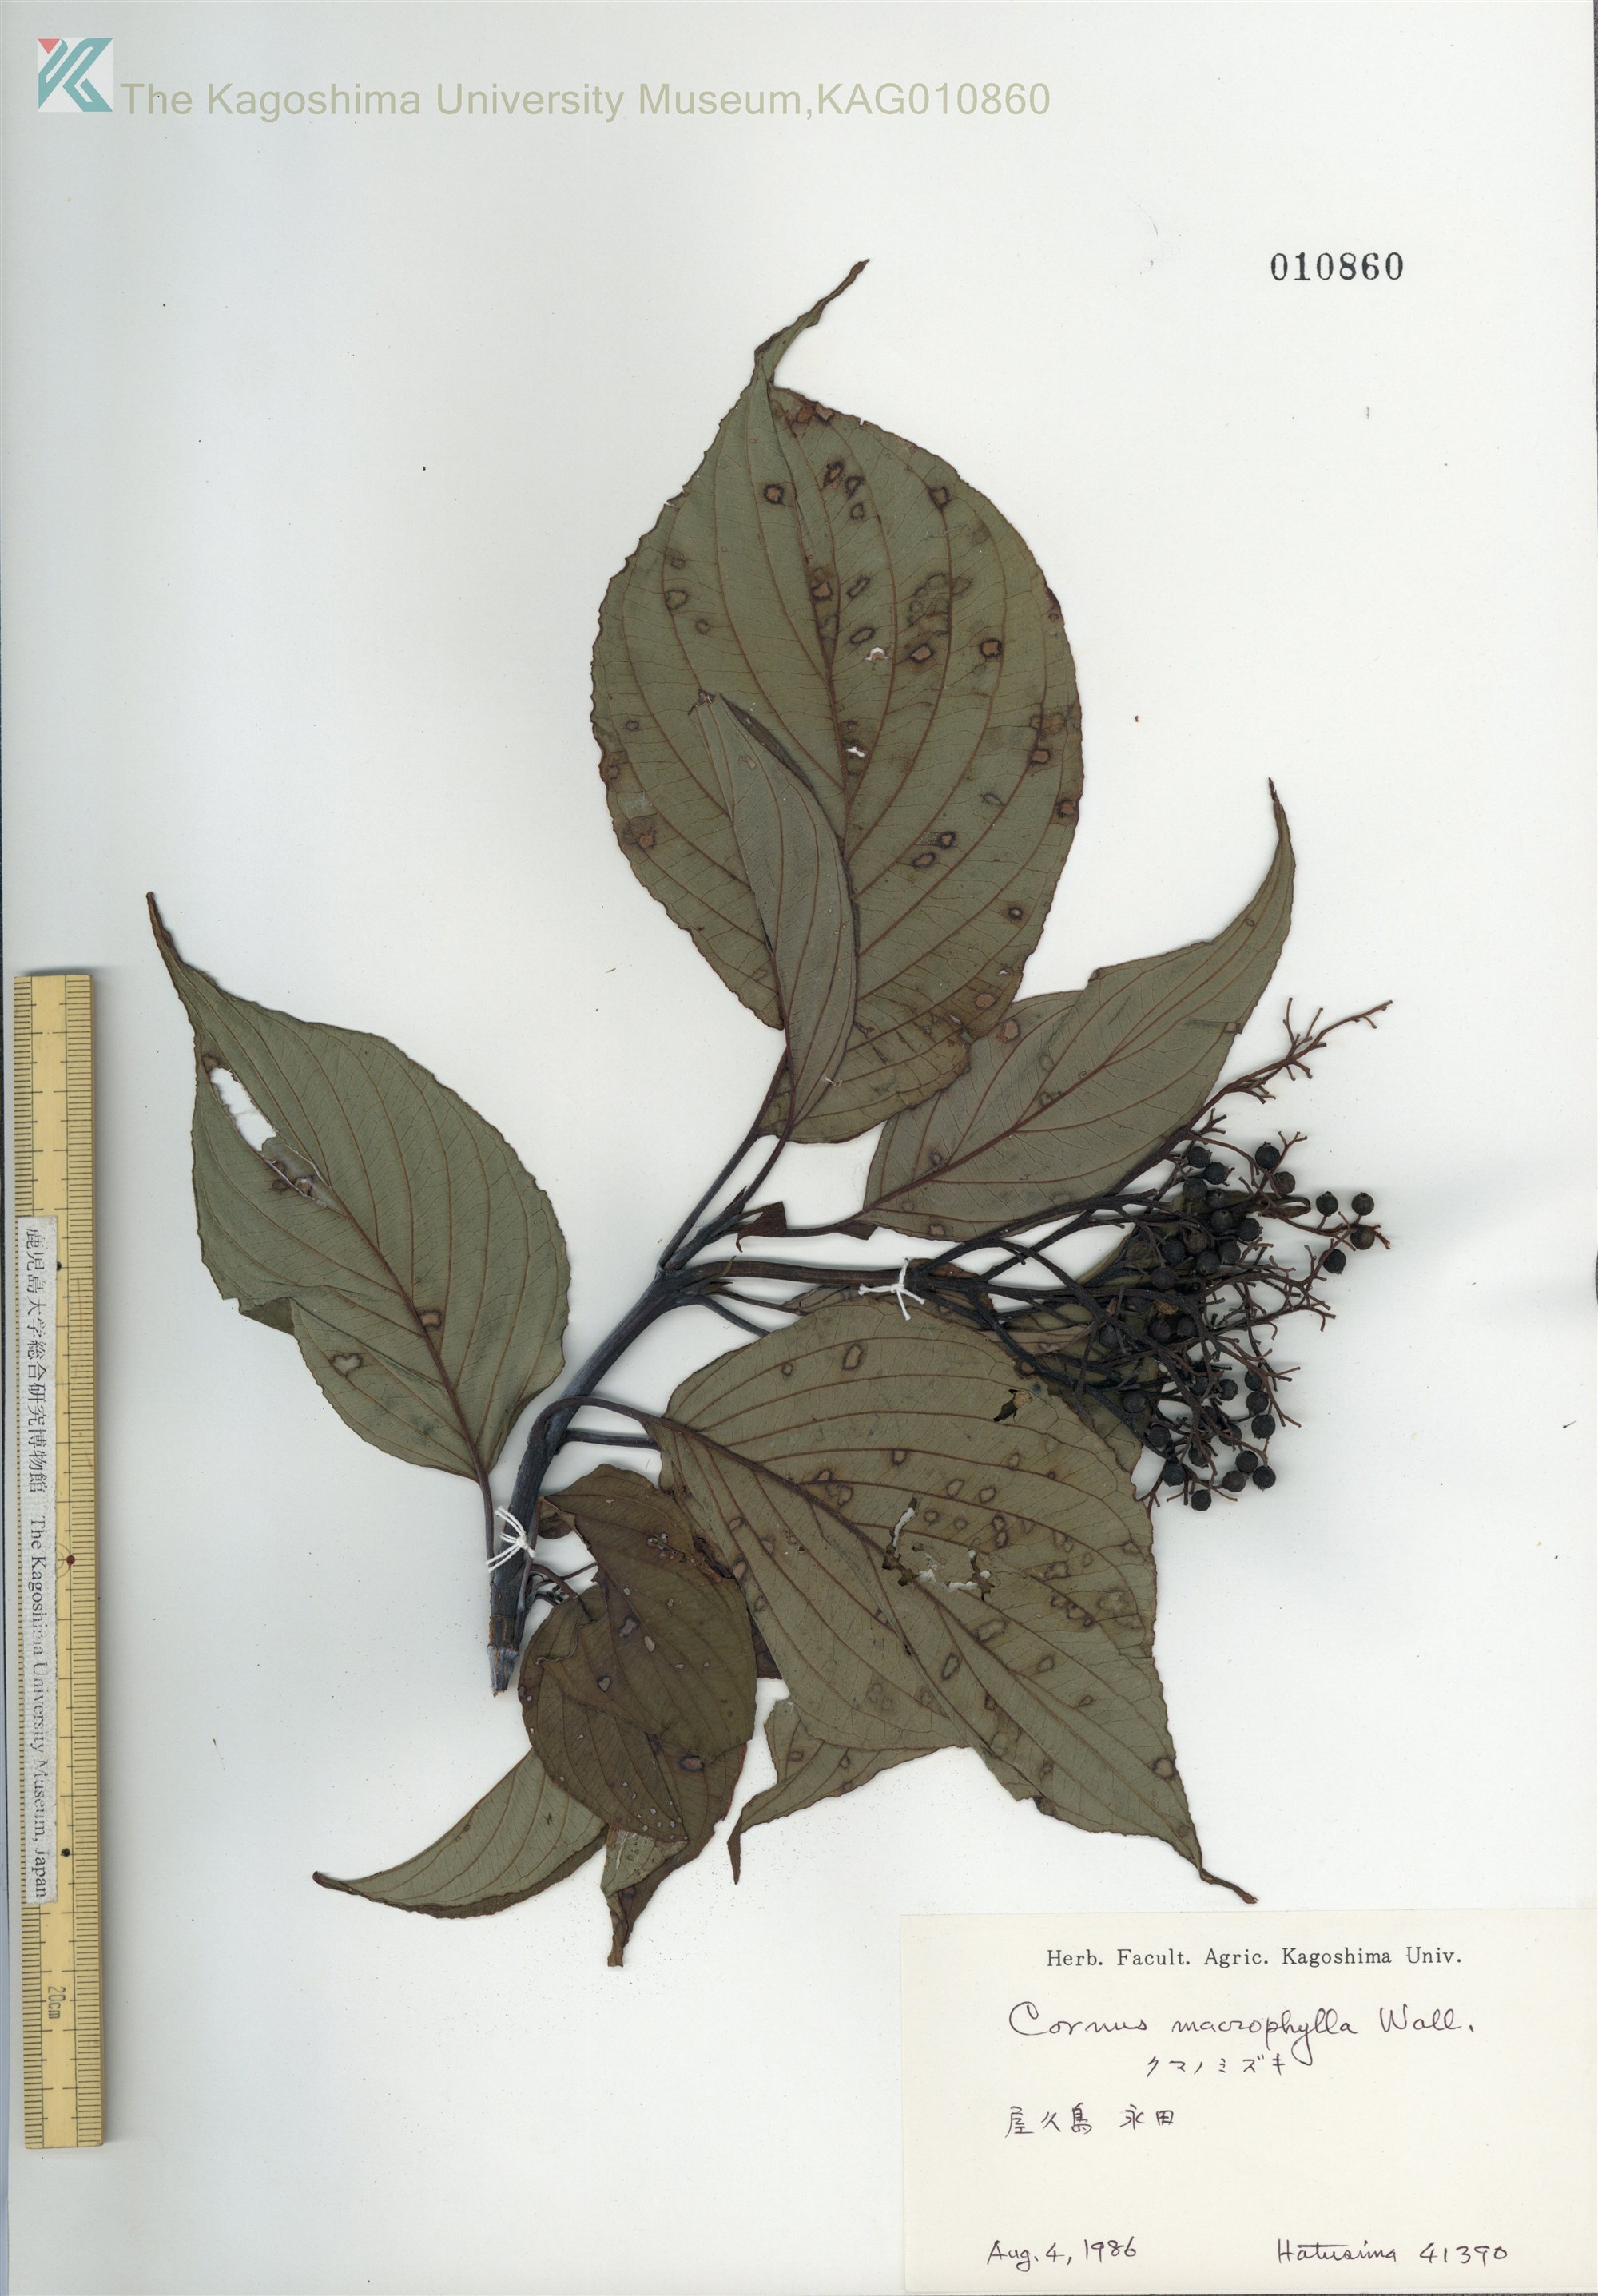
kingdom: Plantae
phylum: Tracheophyta
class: Magnoliopsida
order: Cornales
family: Cornaceae
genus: Cornus
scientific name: Cornus macrophylla
